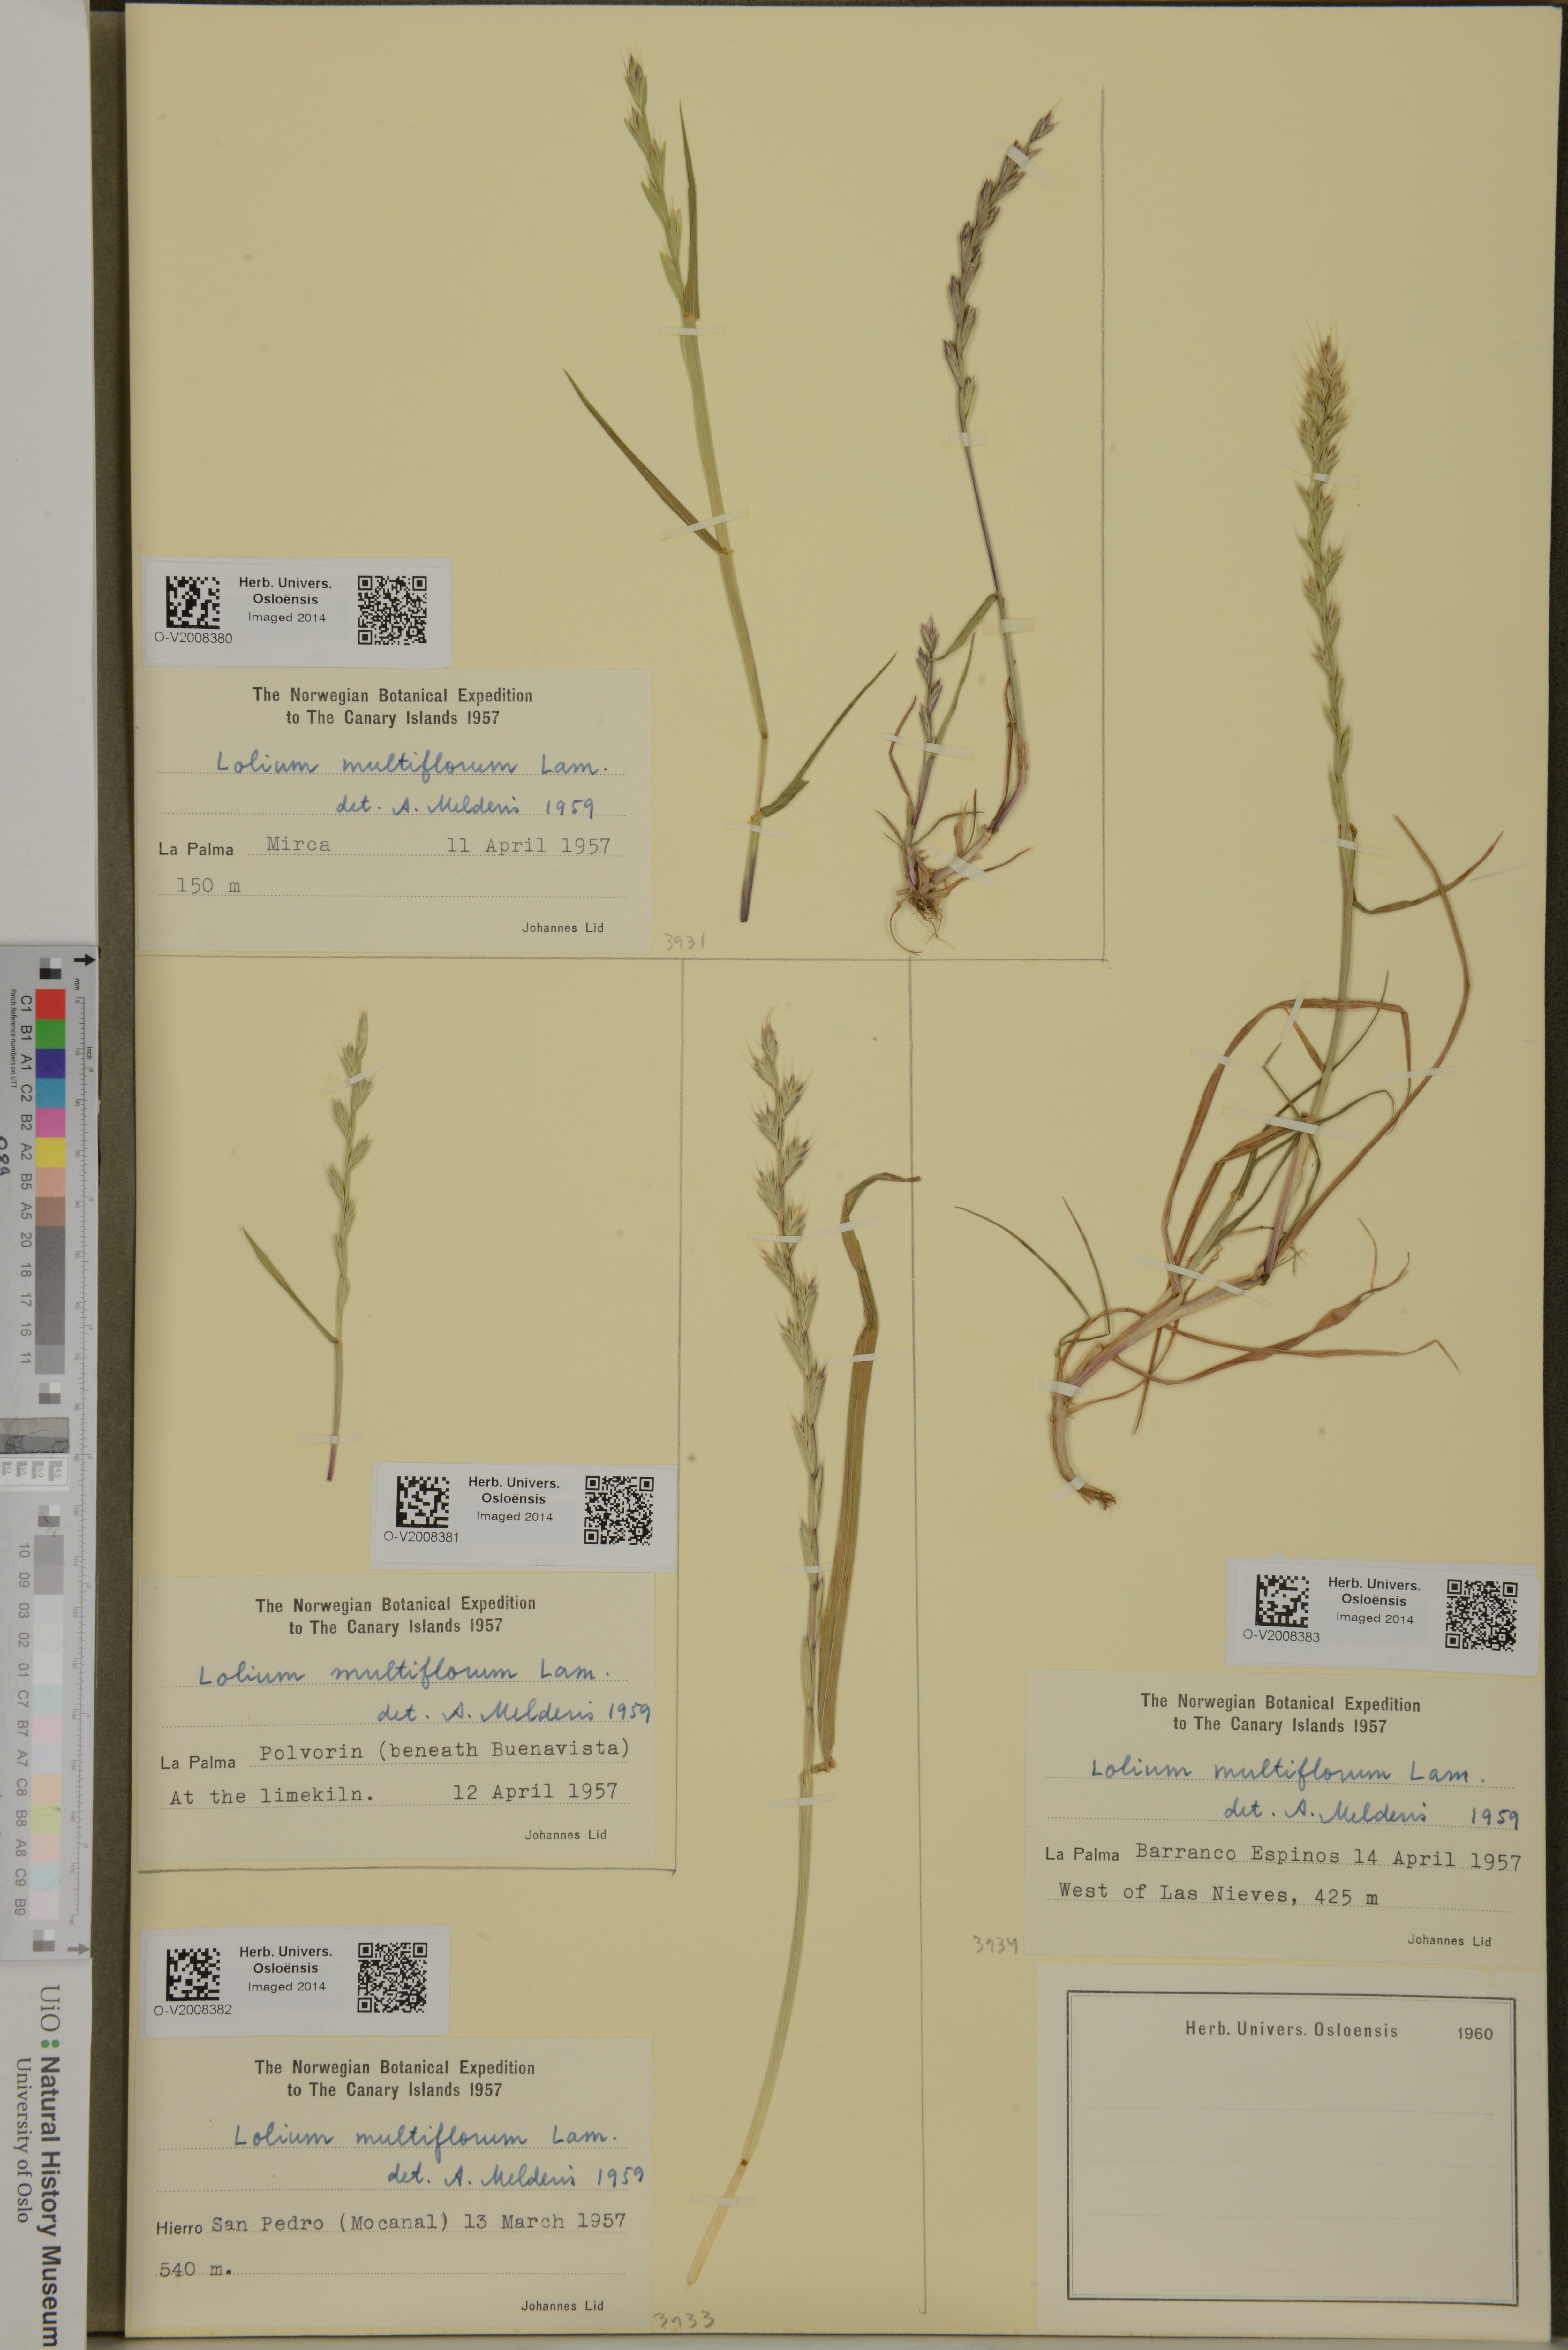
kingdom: Plantae
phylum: Tracheophyta
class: Liliopsida
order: Poales
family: Poaceae
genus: Lolium
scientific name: Lolium multiflorum
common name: Annual ryegrass
